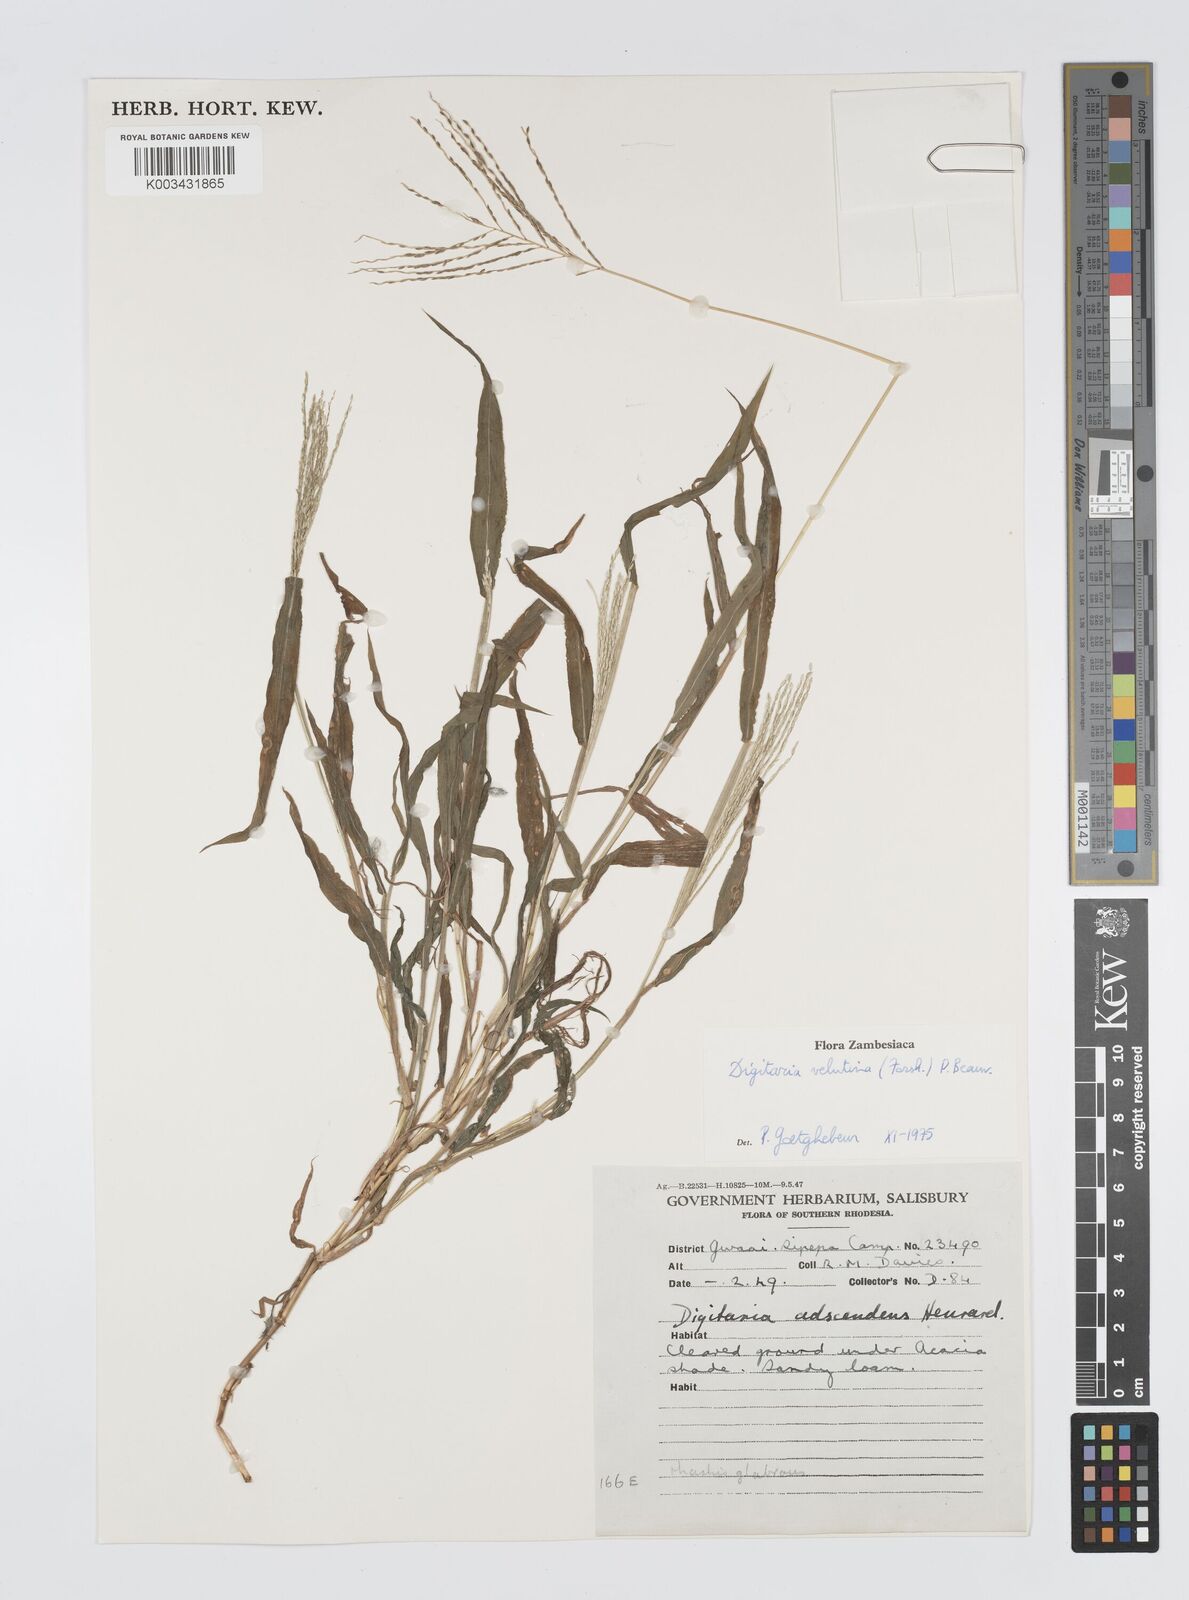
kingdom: Plantae
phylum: Tracheophyta
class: Liliopsida
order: Poales
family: Poaceae
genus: Digitaria
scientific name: Digitaria velutina
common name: Long-plume finger grass
